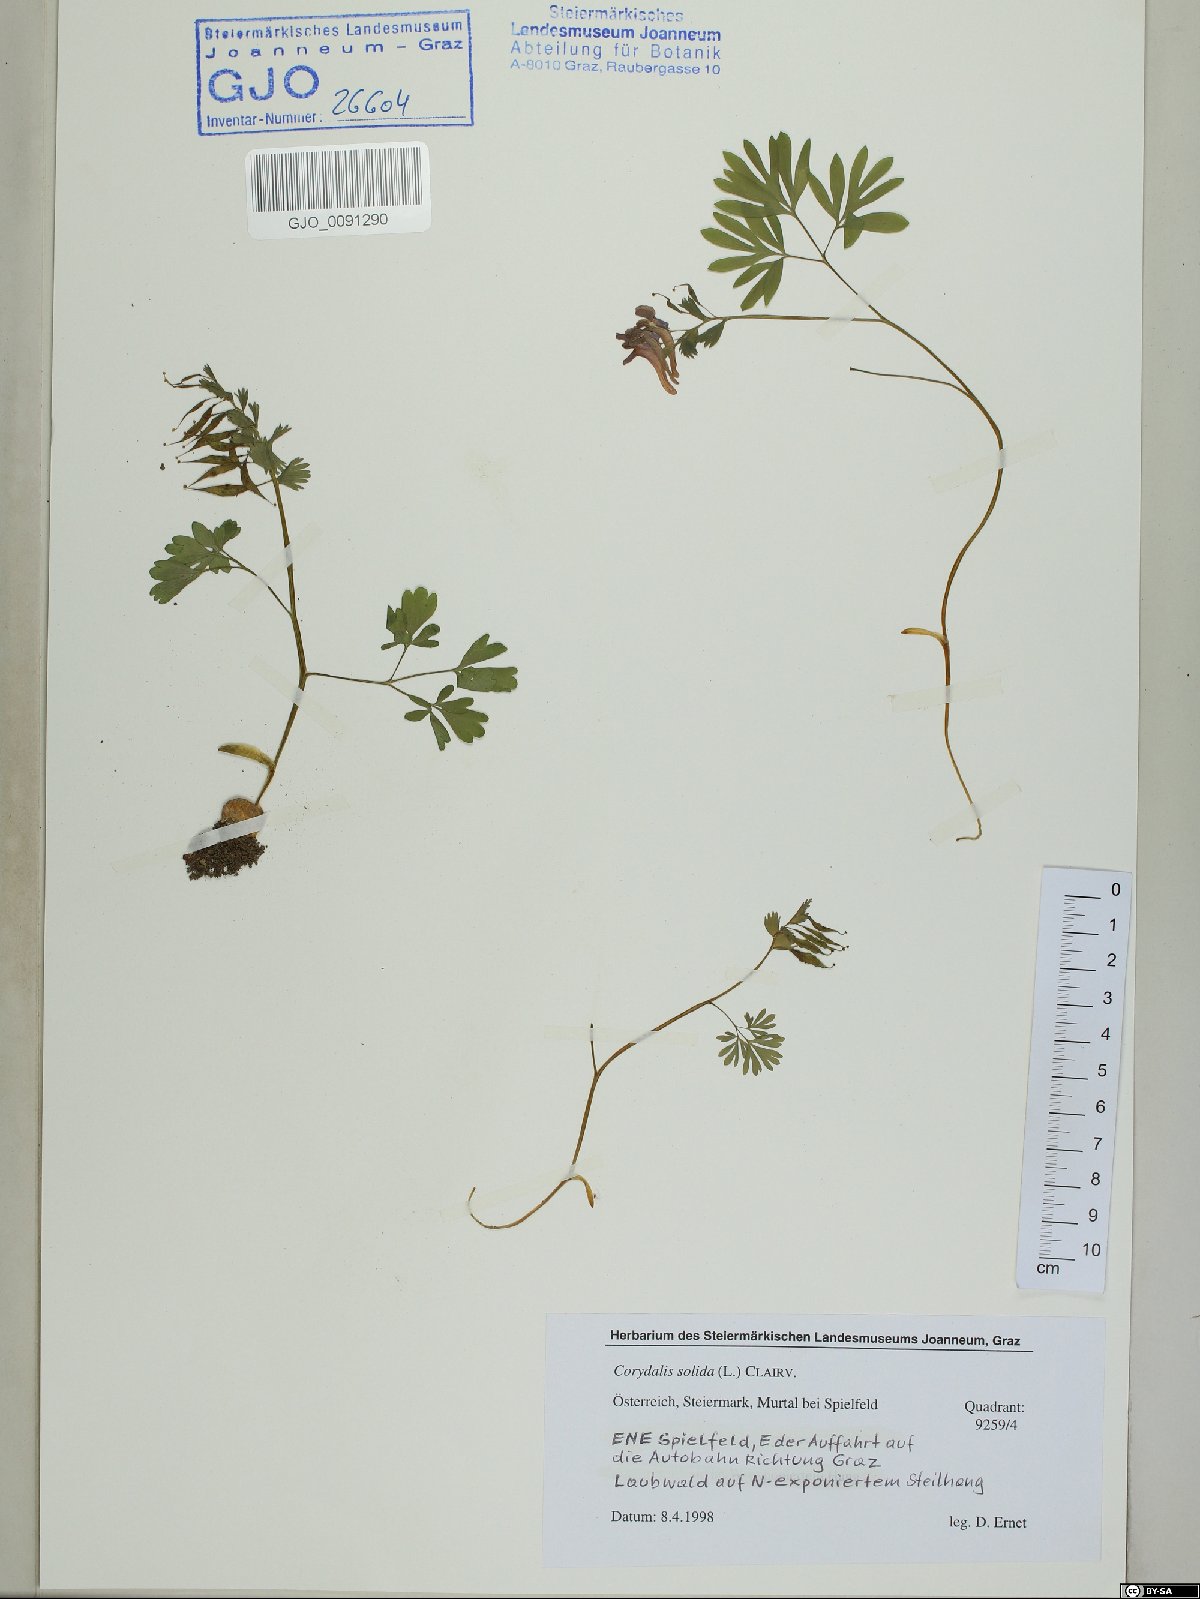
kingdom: Plantae
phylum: Tracheophyta
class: Magnoliopsida
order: Ranunculales
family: Papaveraceae
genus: Corydalis
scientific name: Corydalis solida
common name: Bird-in-a-bush
